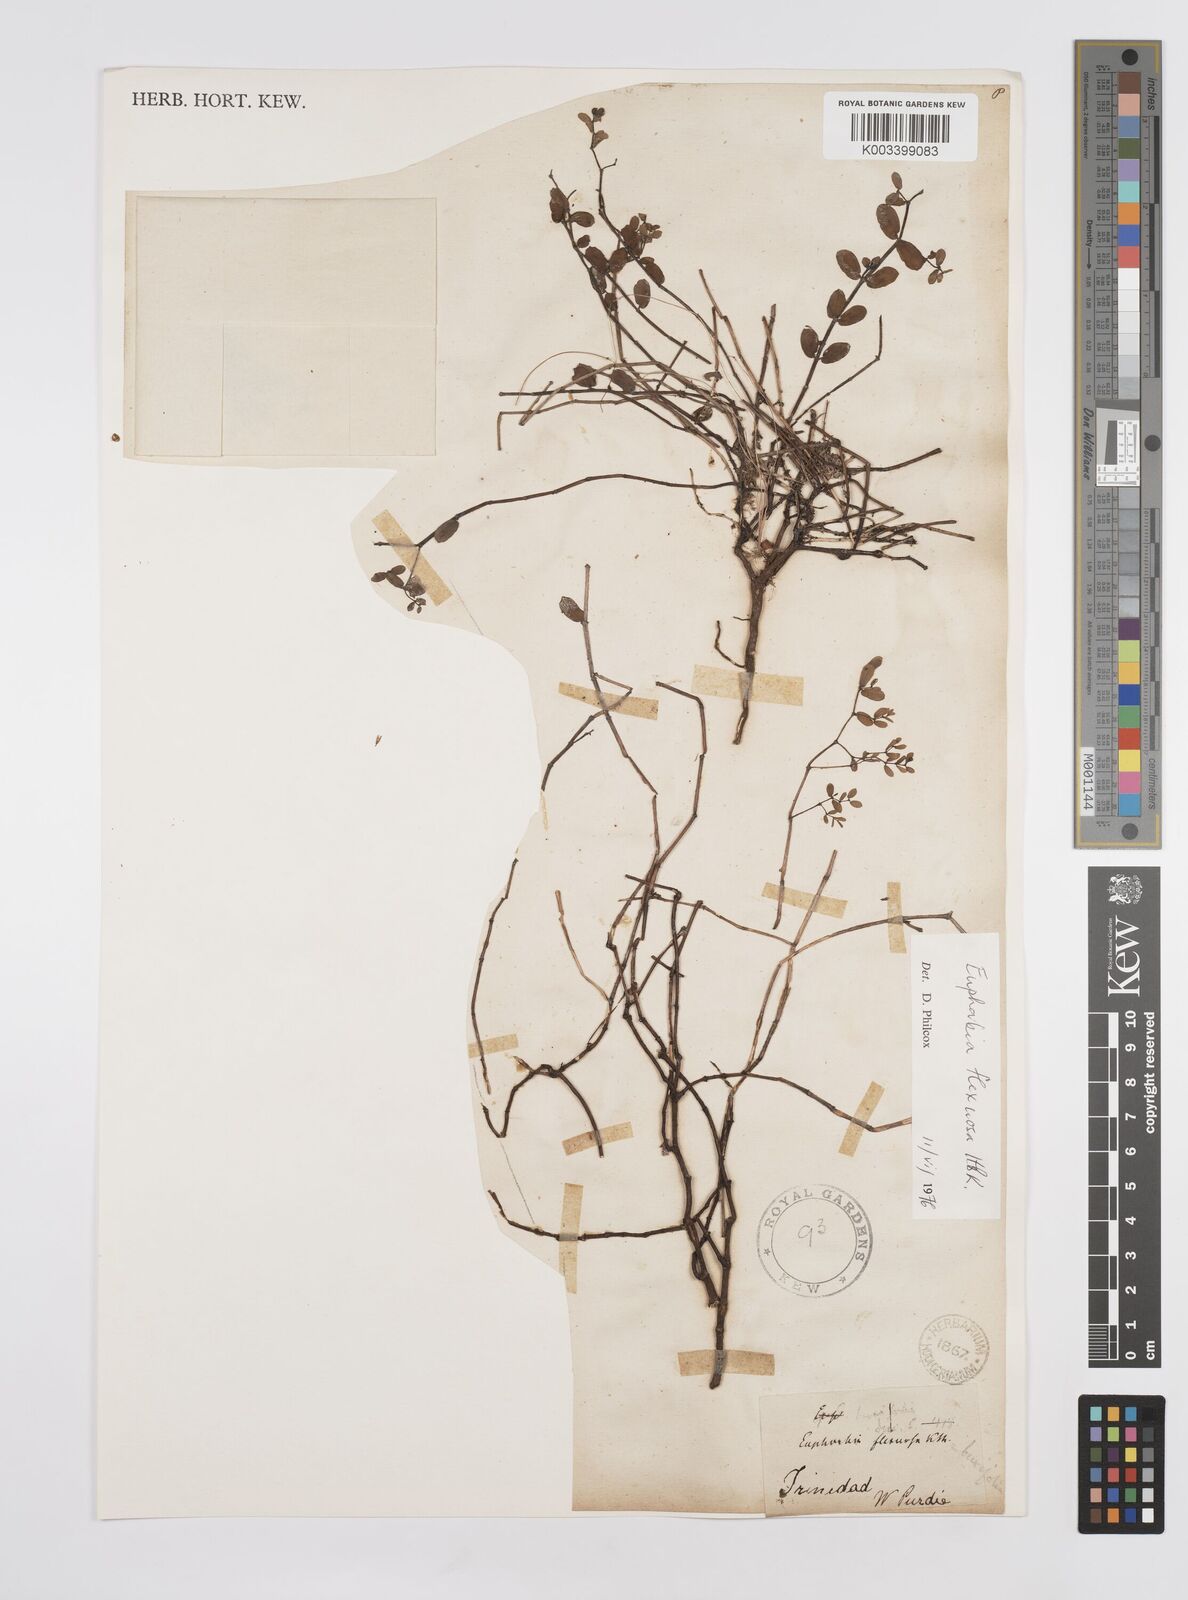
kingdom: Plantae
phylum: Tracheophyta
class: Magnoliopsida
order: Malpighiales
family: Euphorbiaceae
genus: Euphorbia
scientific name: Euphorbia mesembryanthemifolia
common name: Coastal beach sandmat
